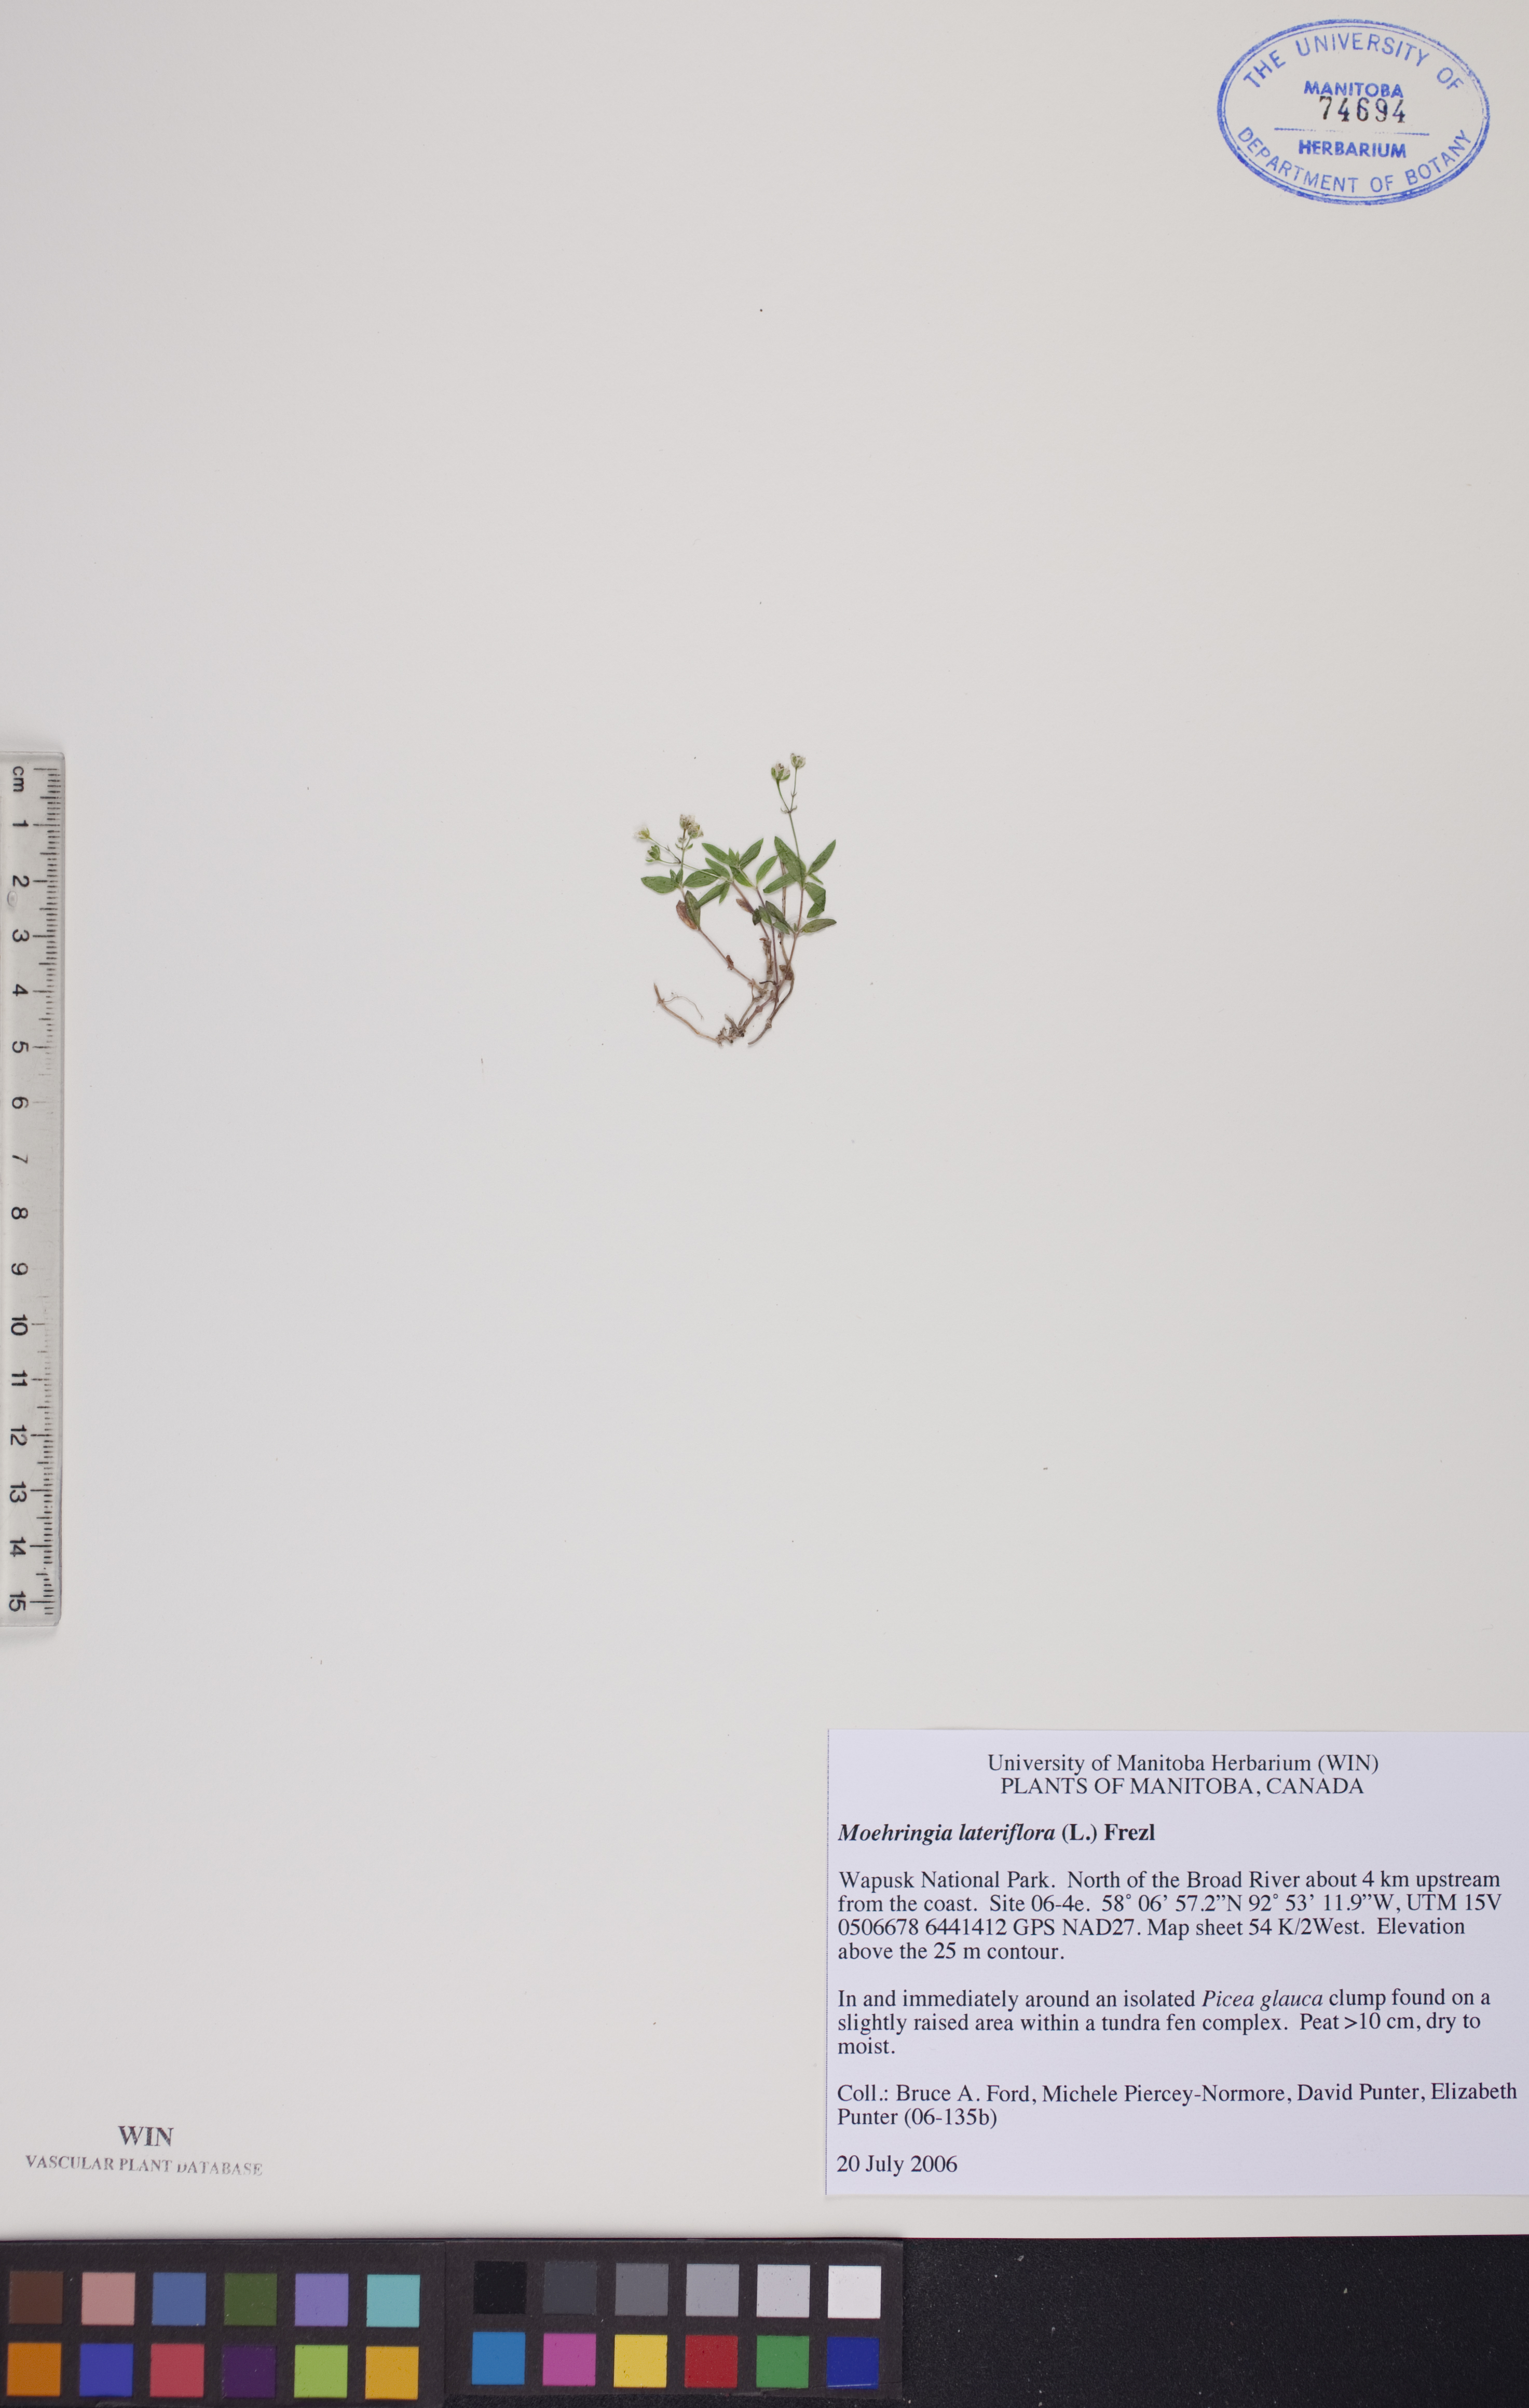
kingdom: Plantae
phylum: Tracheophyta
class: Magnoliopsida
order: Caryophyllales
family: Caryophyllaceae
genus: Moehringia
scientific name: Moehringia lateriflora
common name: Blunt-leaved sandwort
